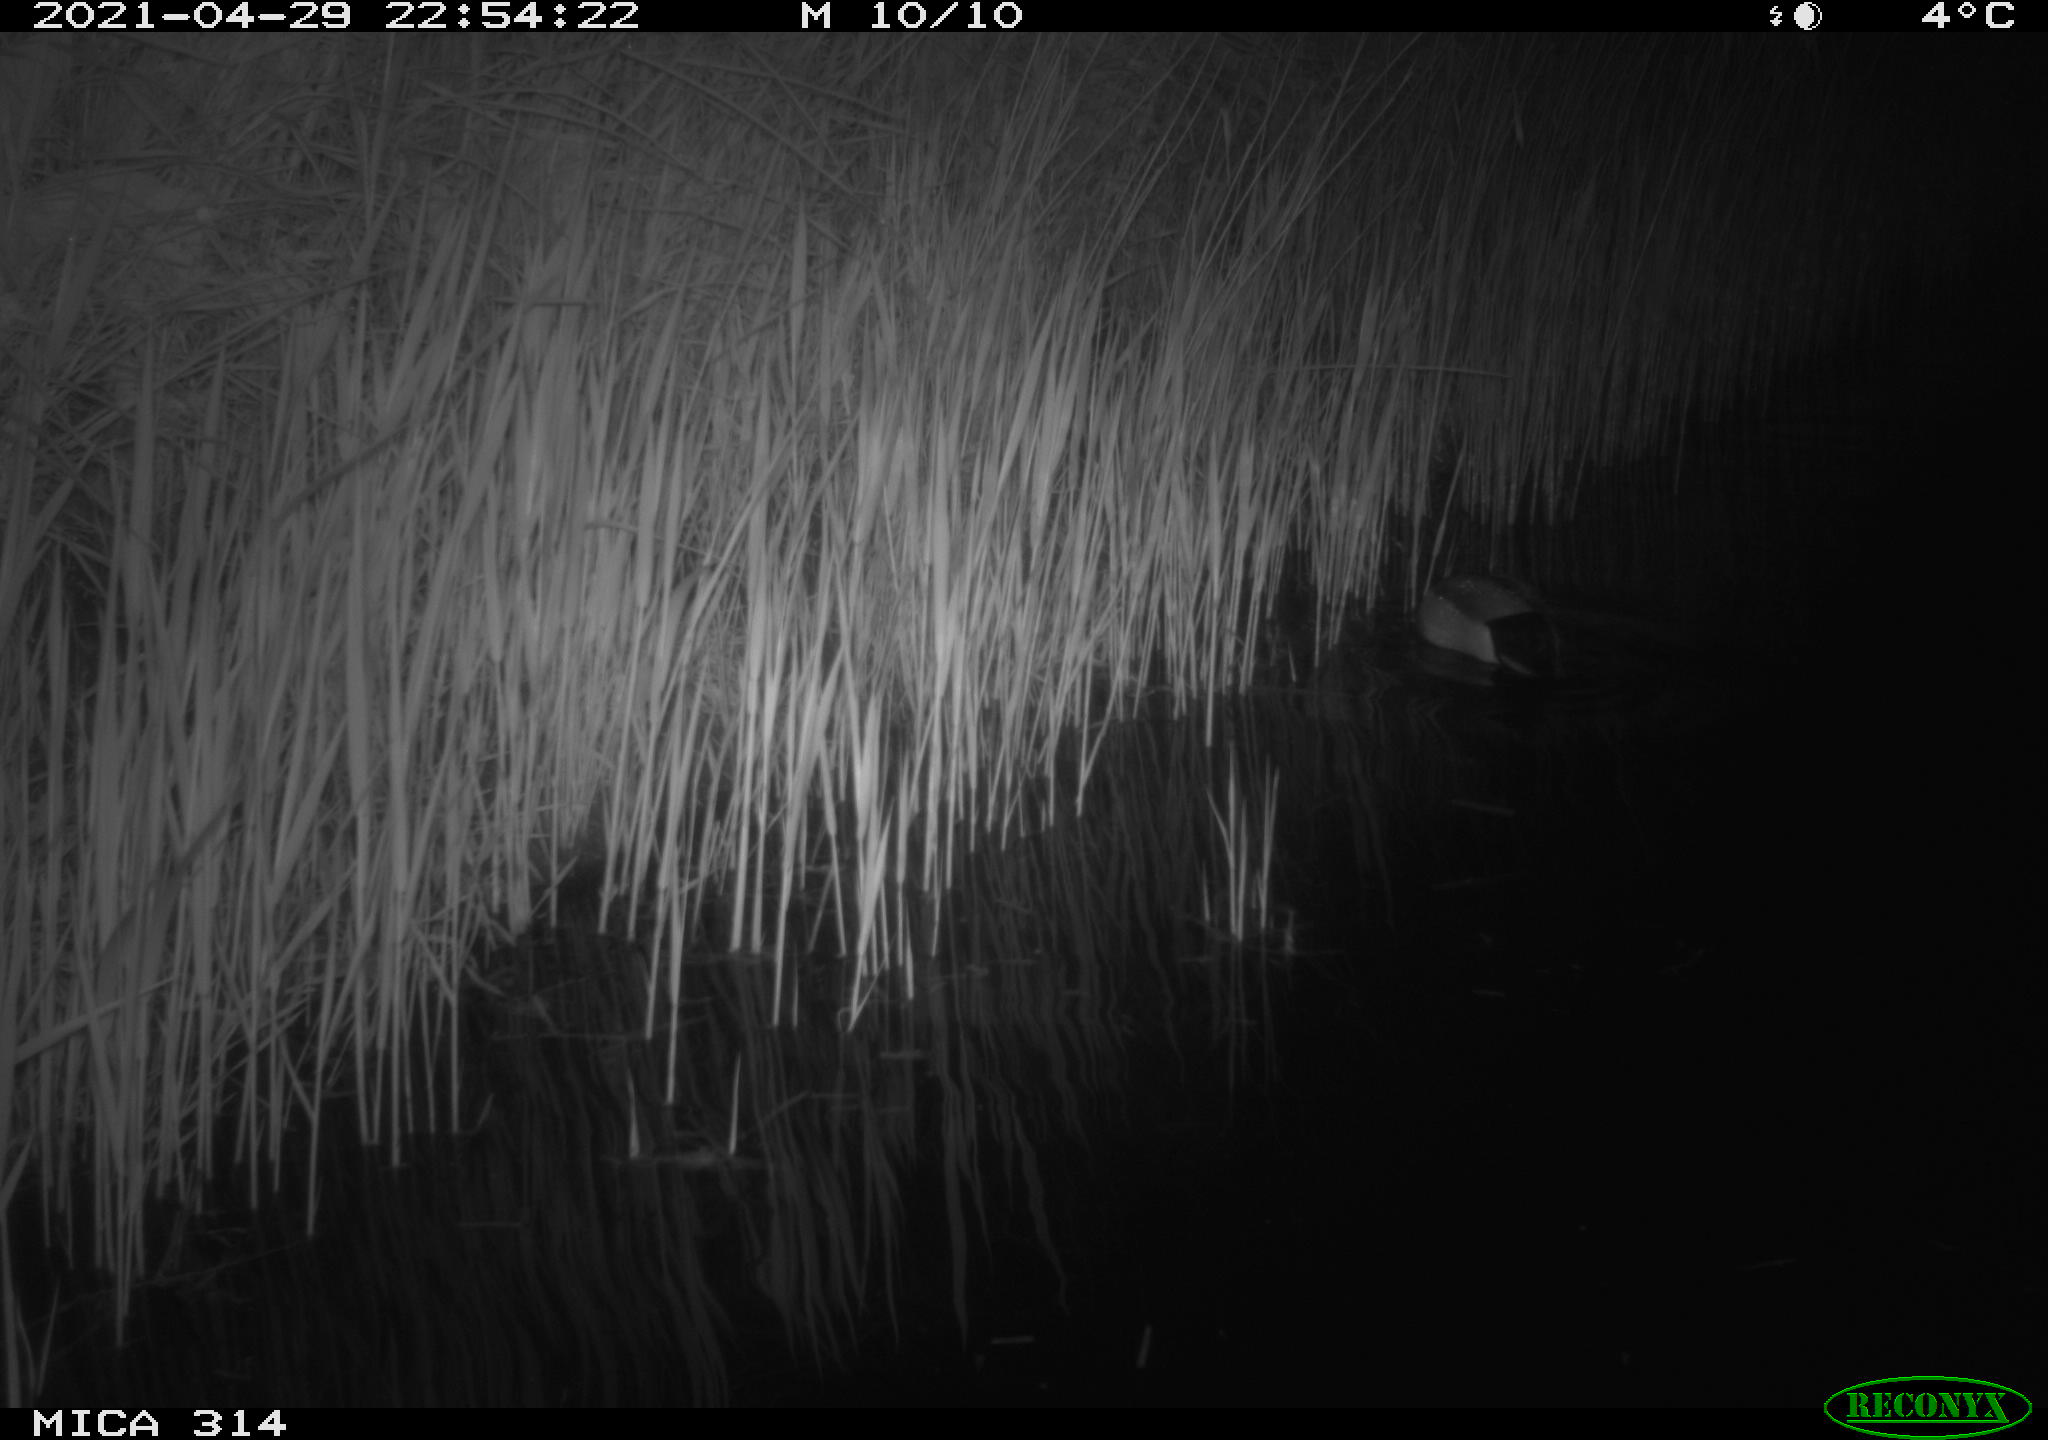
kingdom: Animalia
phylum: Chordata
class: Aves
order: Anseriformes
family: Anatidae
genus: Anas
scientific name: Anas platyrhynchos
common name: Mallard
